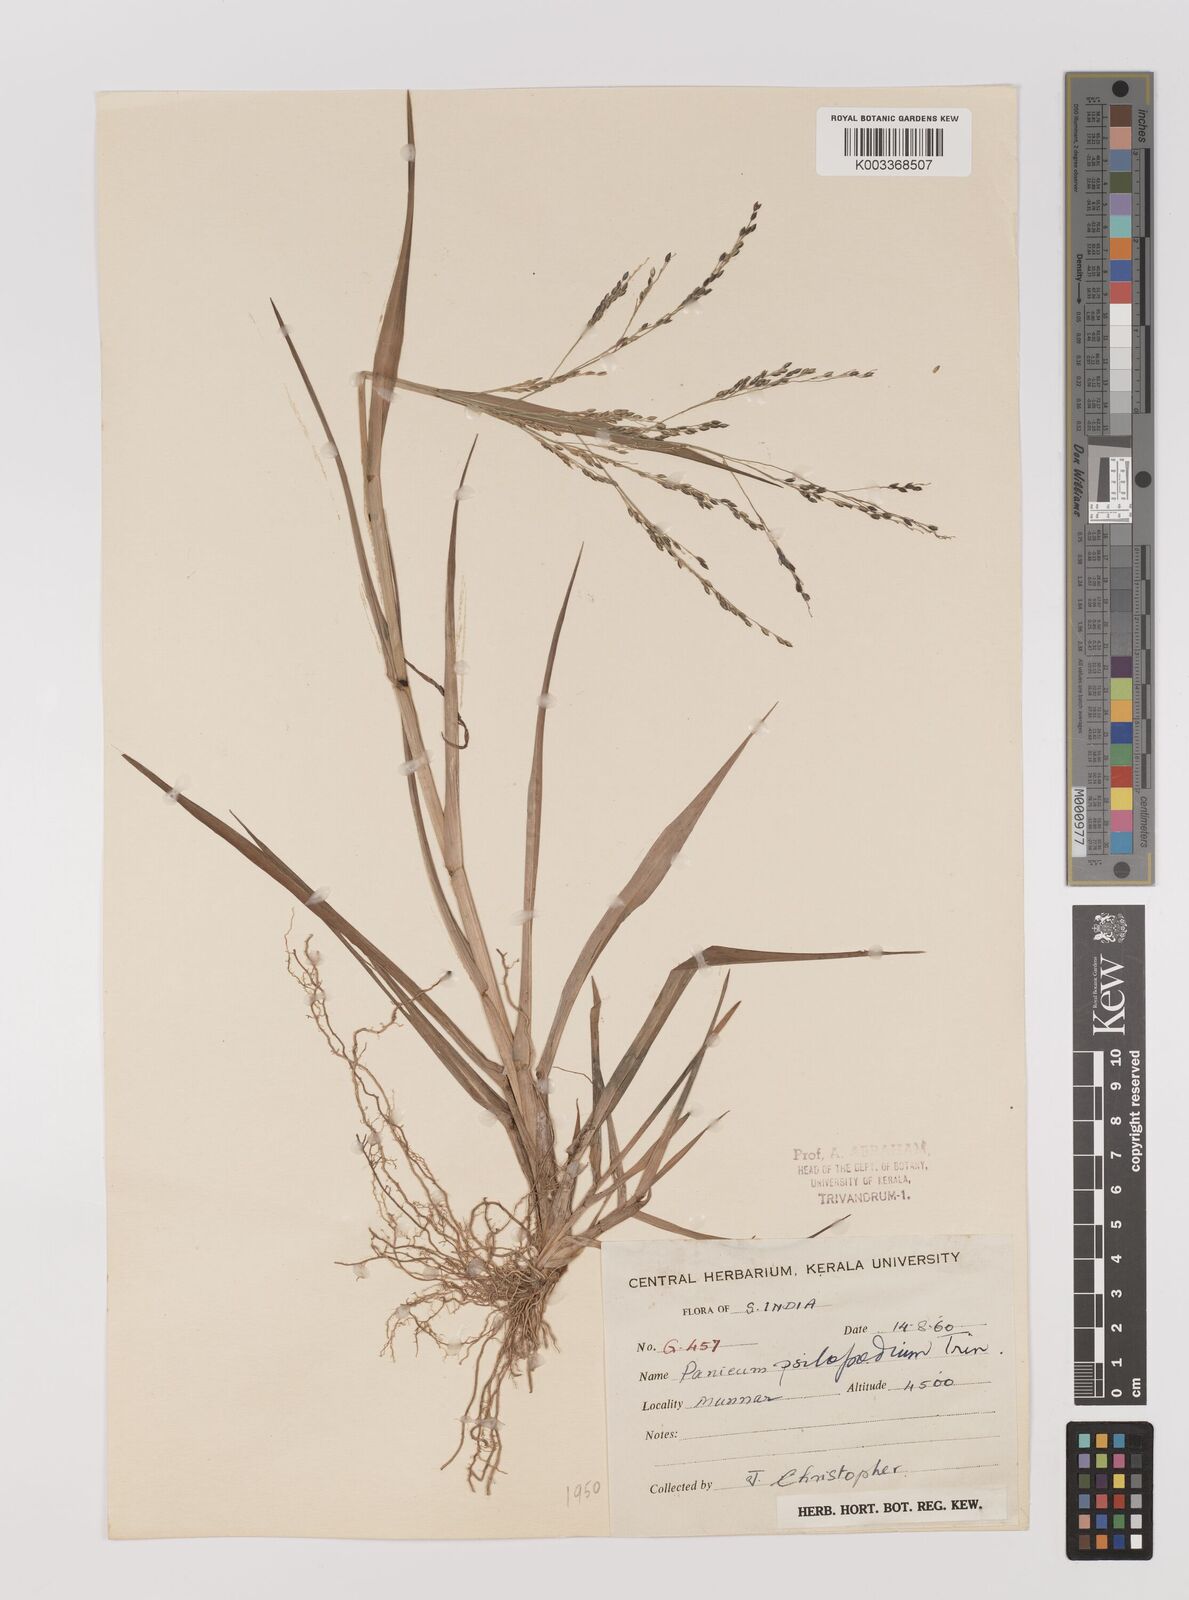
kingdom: Plantae
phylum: Tracheophyta
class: Liliopsida
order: Poales
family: Poaceae
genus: Panicum
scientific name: Panicum sumatrense
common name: Little millet
